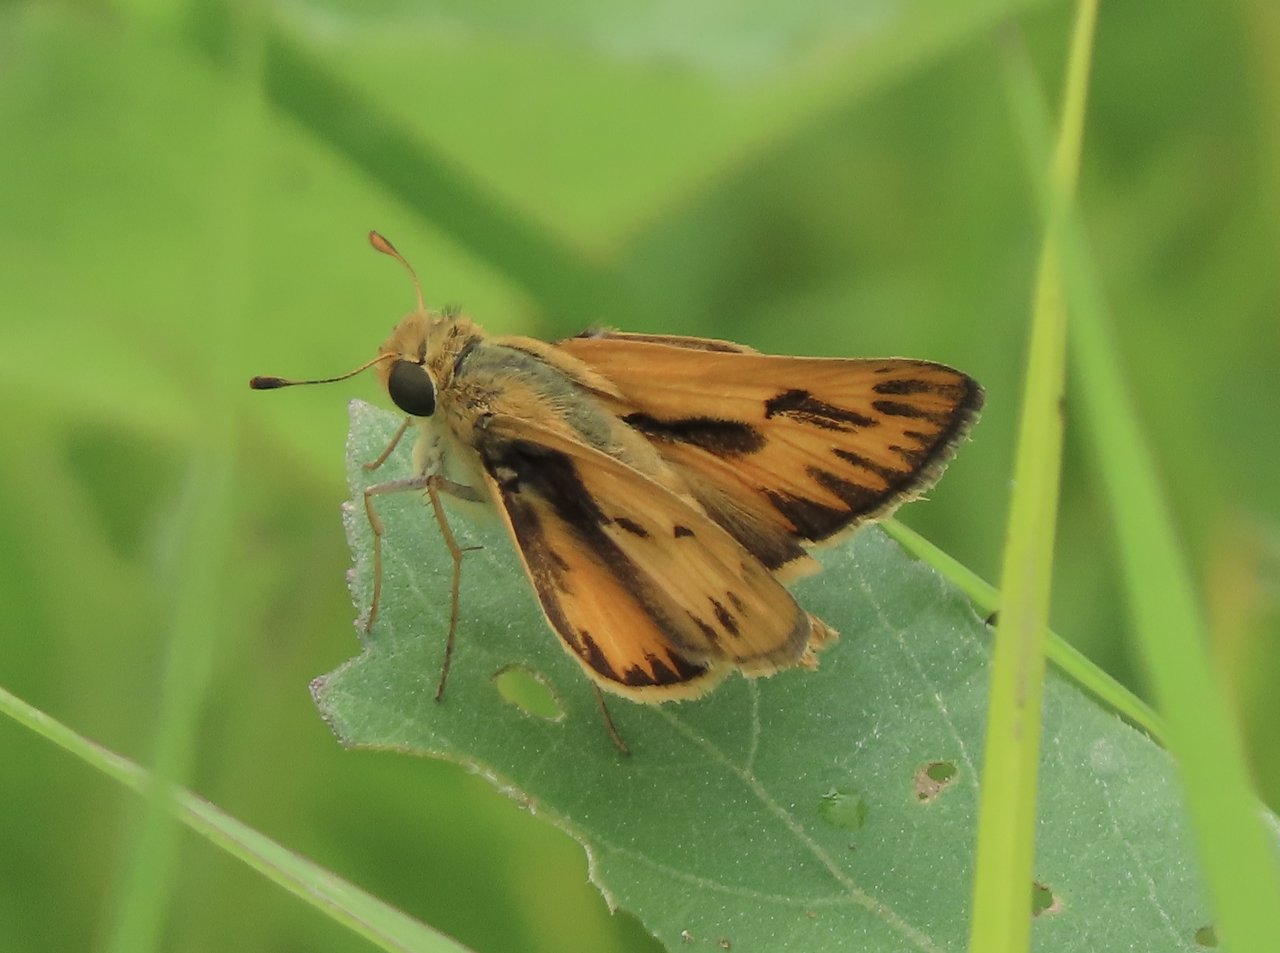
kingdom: Animalia
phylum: Arthropoda
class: Insecta
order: Lepidoptera
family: Hesperiidae
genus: Hylephila
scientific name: Hylephila phyleus
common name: Fiery Skipper
